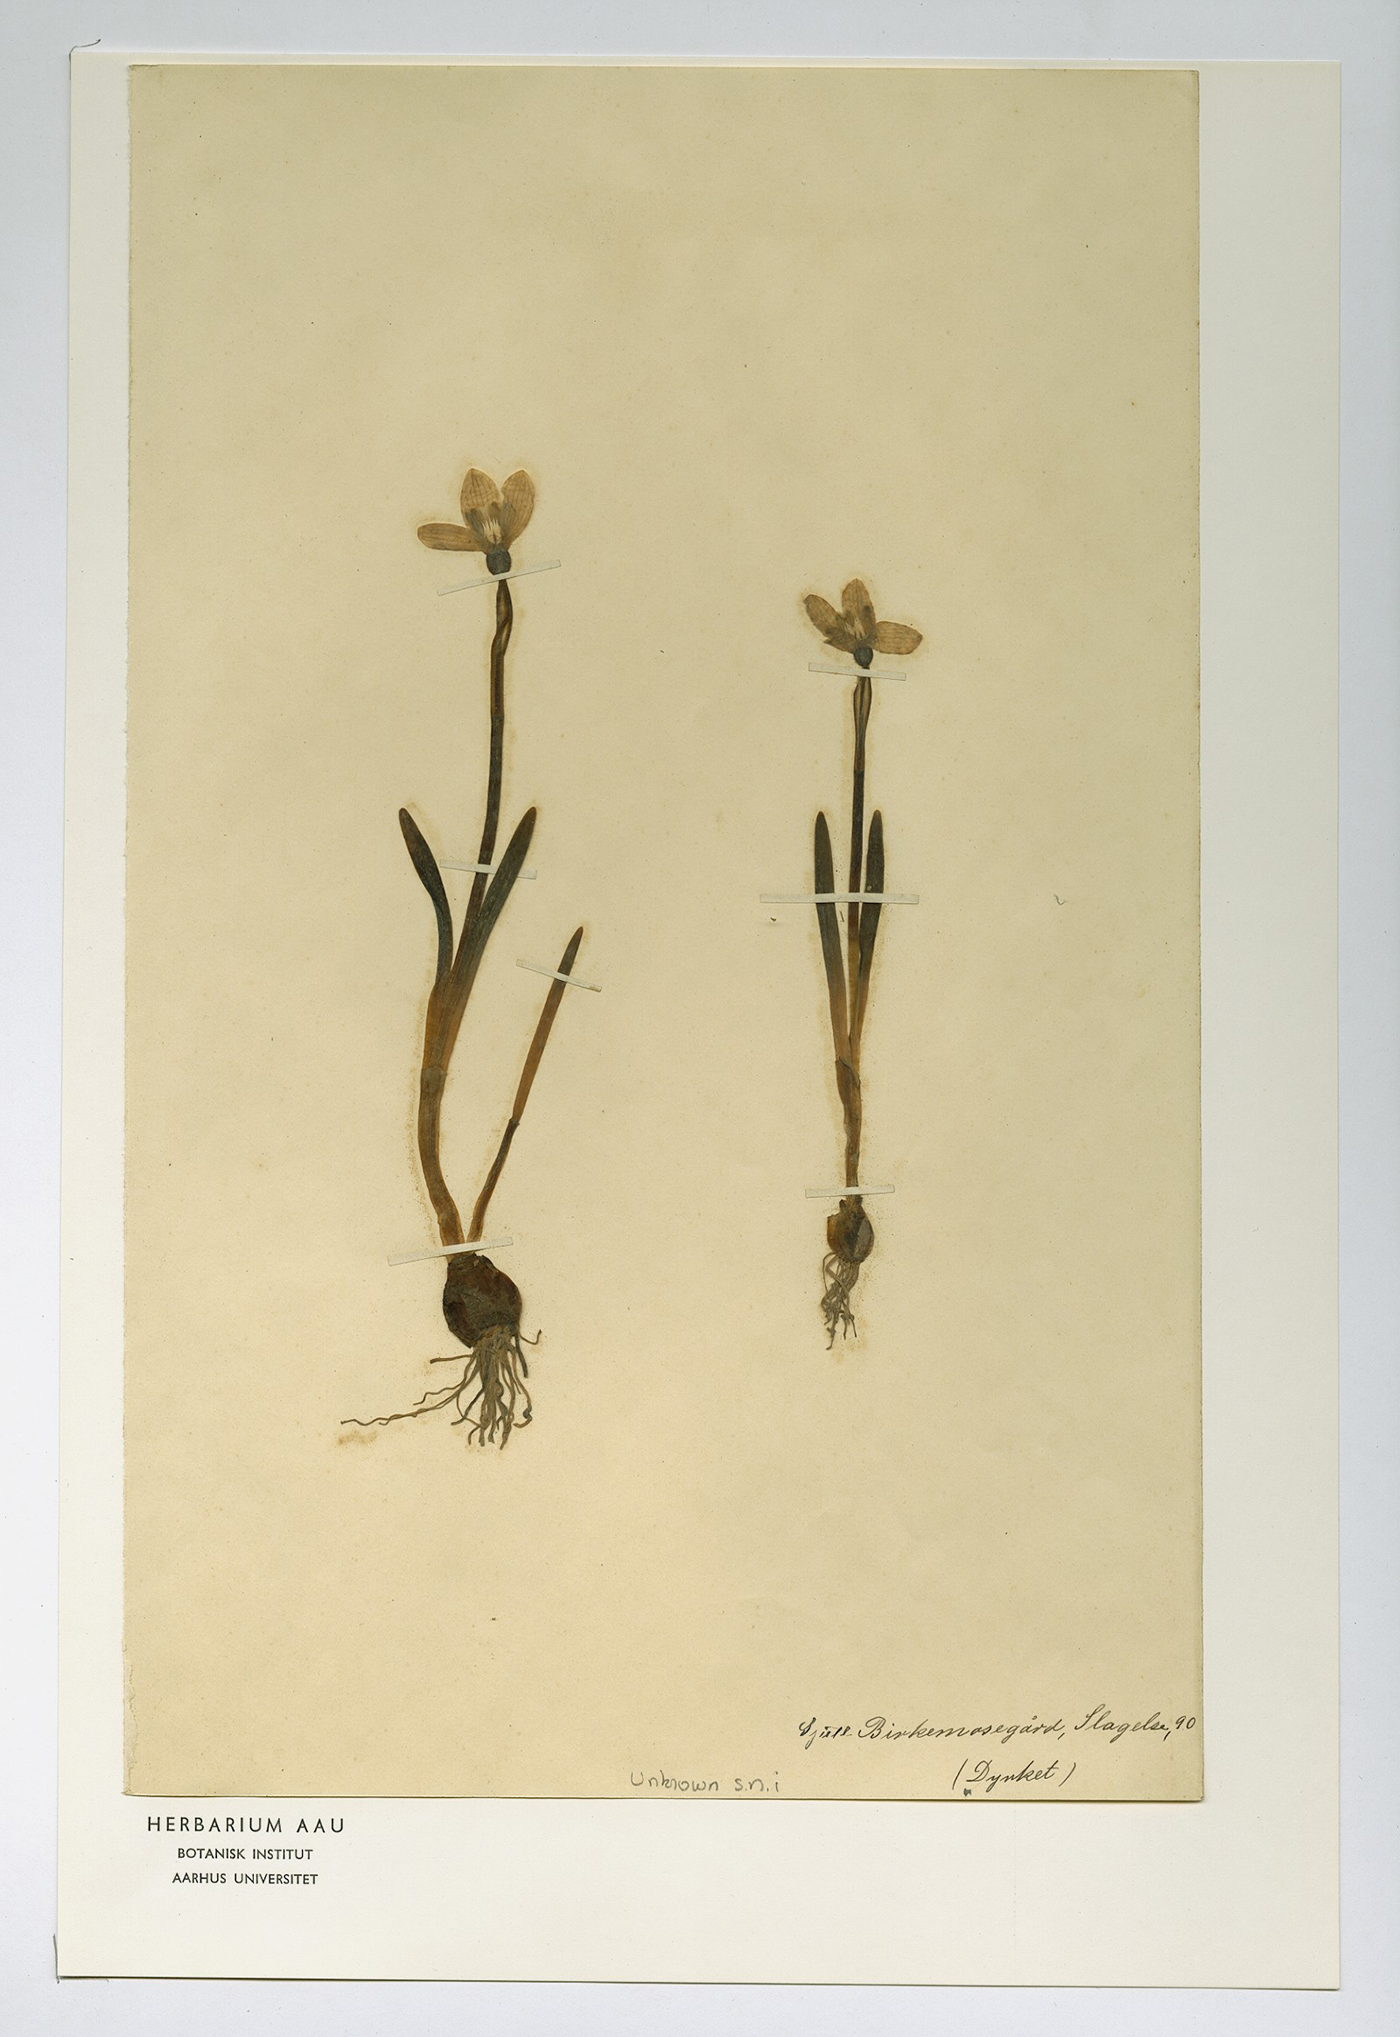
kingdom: Plantae
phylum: Tracheophyta
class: Liliopsida
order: Asparagales
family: Amaryllidaceae
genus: Galanthus
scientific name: Galanthus nivalis
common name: Snowdrop
